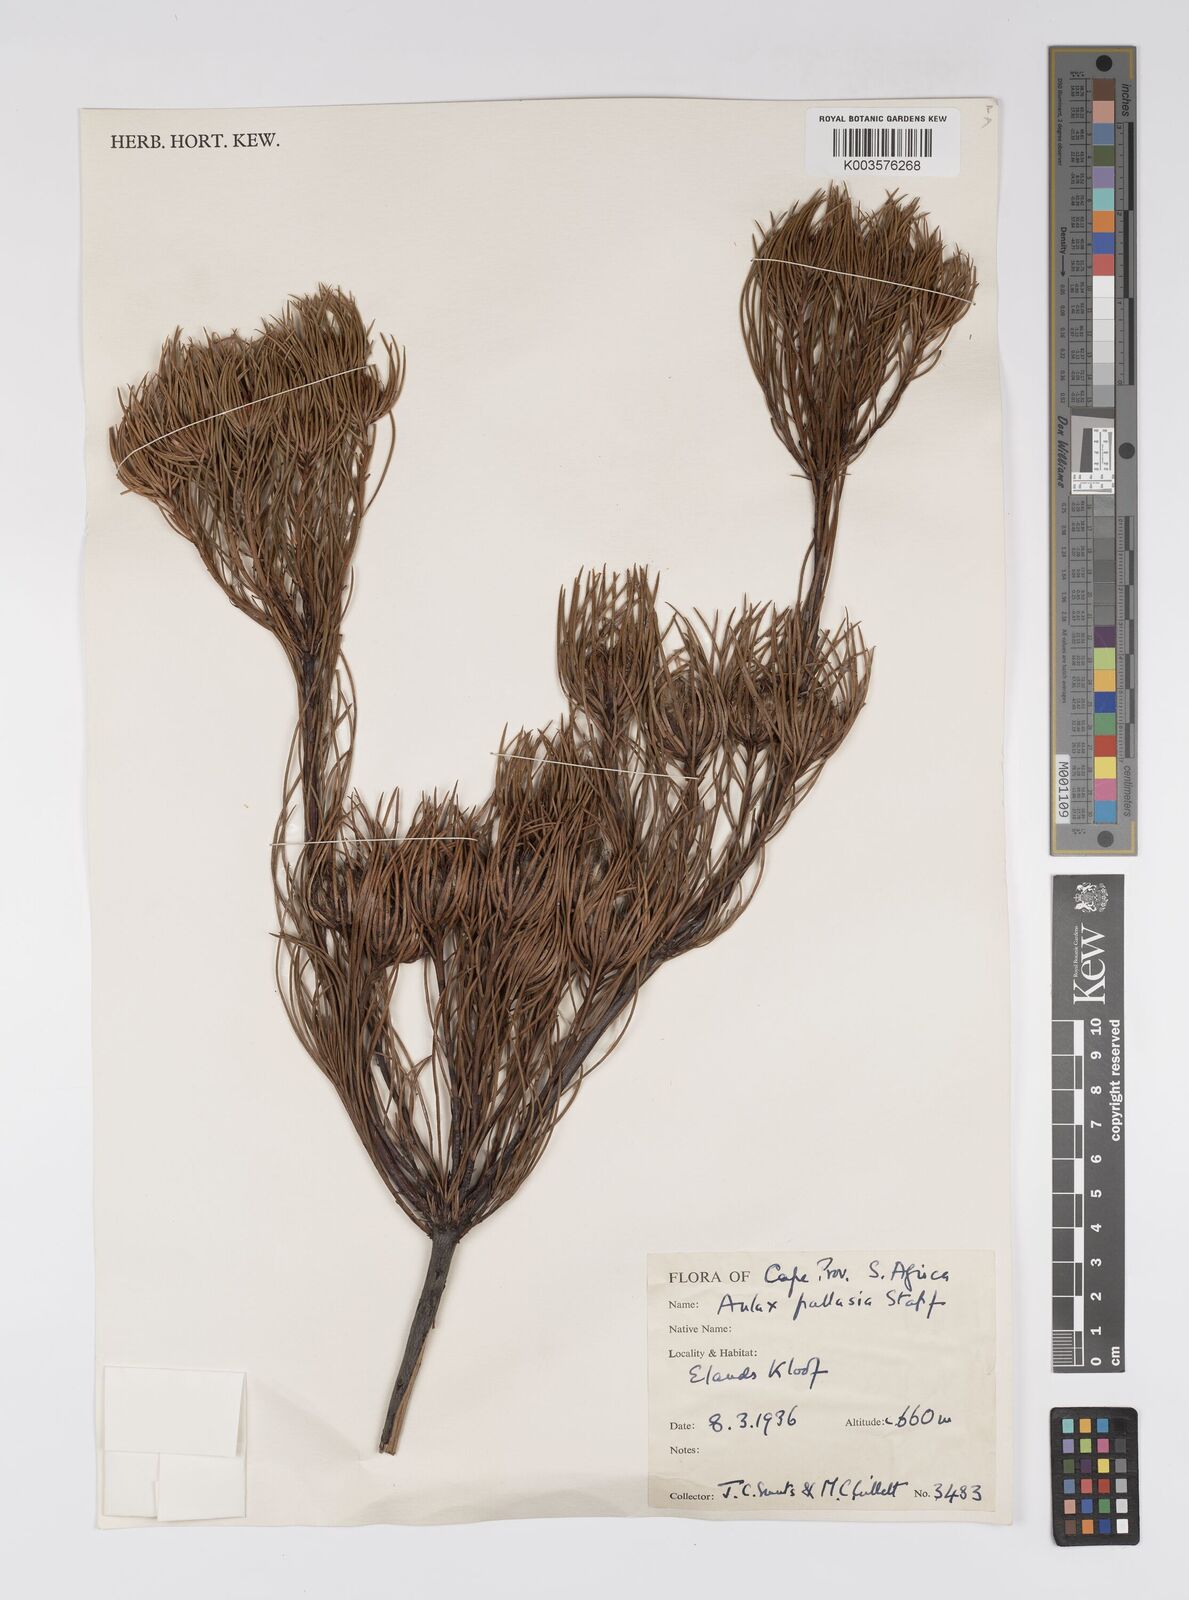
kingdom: Plantae
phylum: Tracheophyta
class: Magnoliopsida
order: Proteales
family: Proteaceae
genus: Aulax
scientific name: Aulax pallasia
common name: Needle-leaf featherbush
